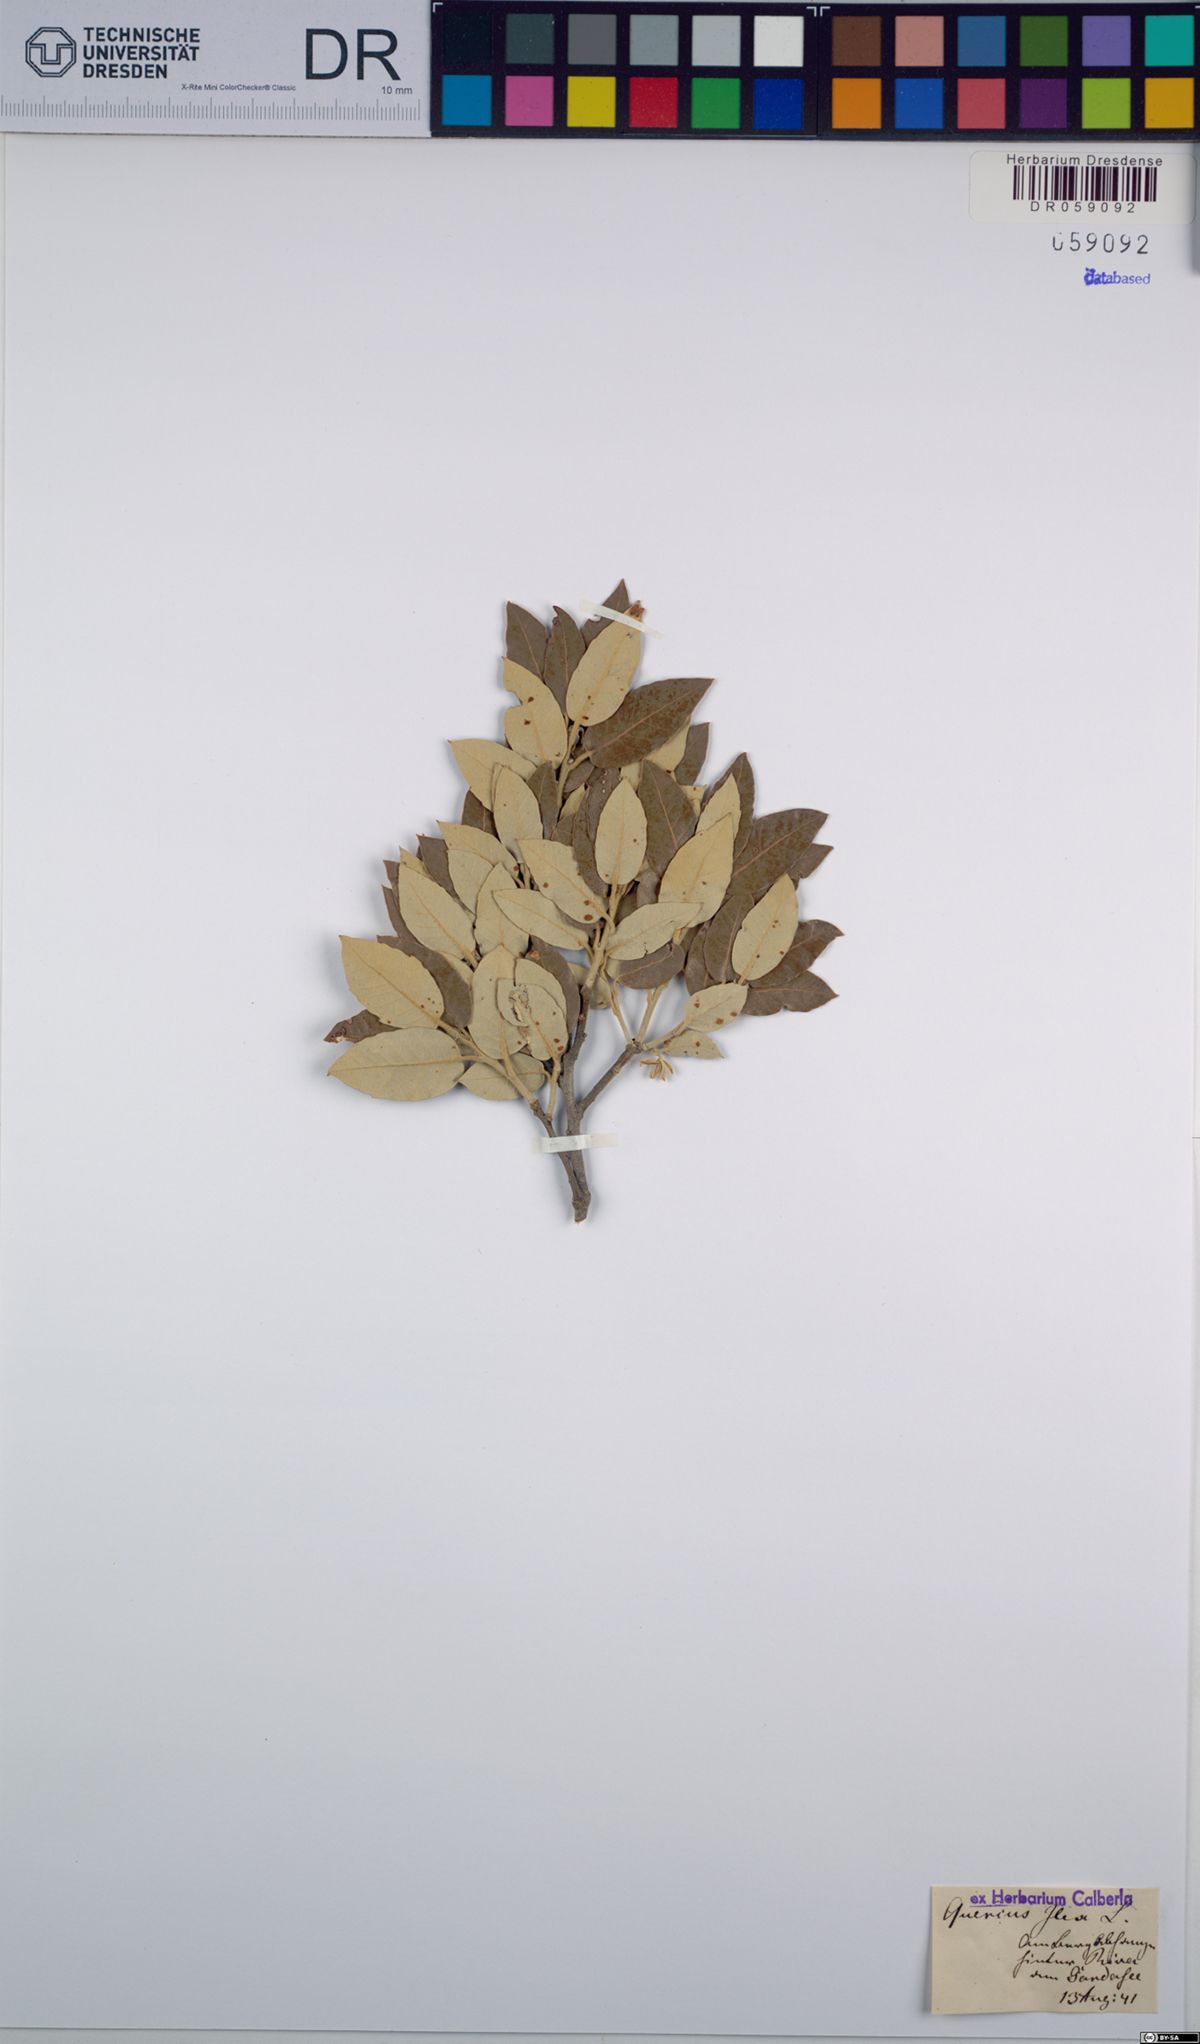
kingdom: Plantae
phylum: Tracheophyta
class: Magnoliopsida
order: Fagales
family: Fagaceae
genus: Quercus
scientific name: Quercus ilex
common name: Evergreen oak
